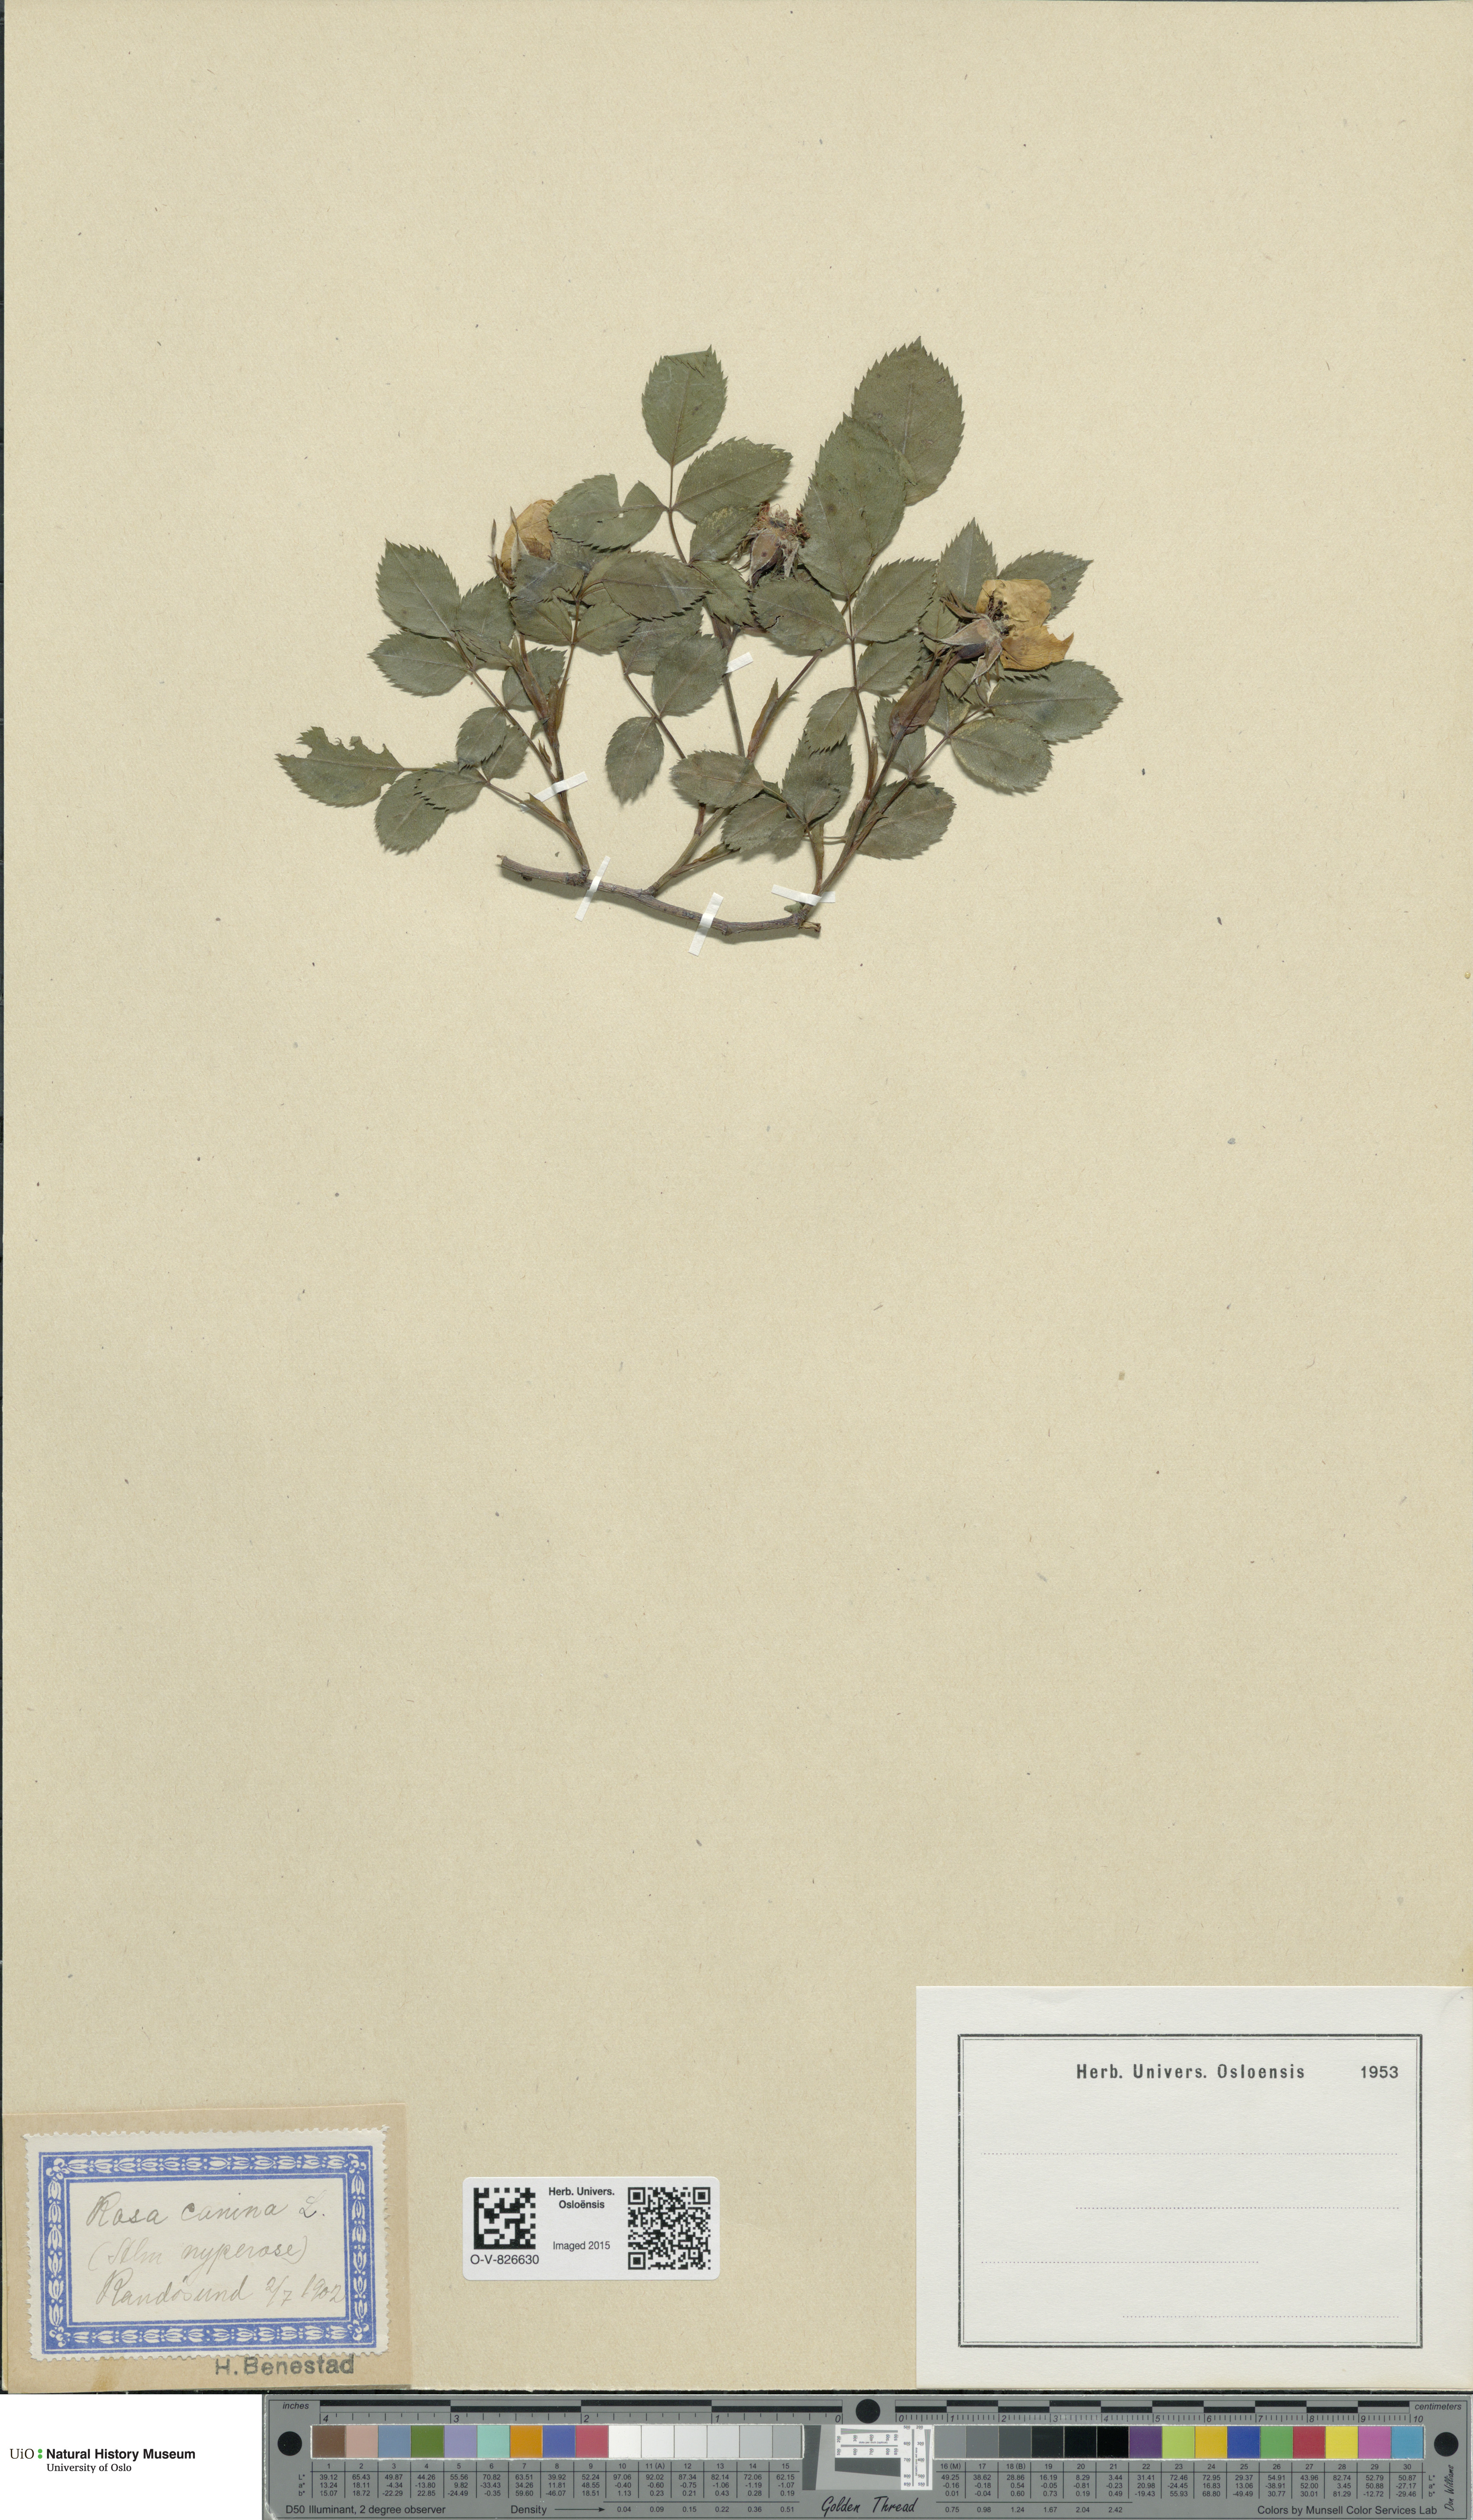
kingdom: Plantae
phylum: Tracheophyta
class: Magnoliopsida
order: Rosales
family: Rosaceae
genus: Rosa
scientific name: Rosa canina
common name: Dog rose
